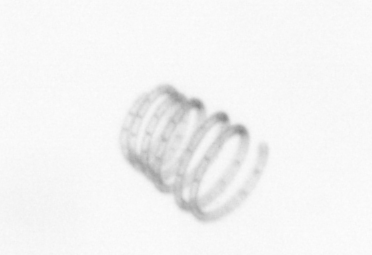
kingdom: Chromista
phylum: Ochrophyta
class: Bacillariophyceae
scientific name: Bacillariophyceae
